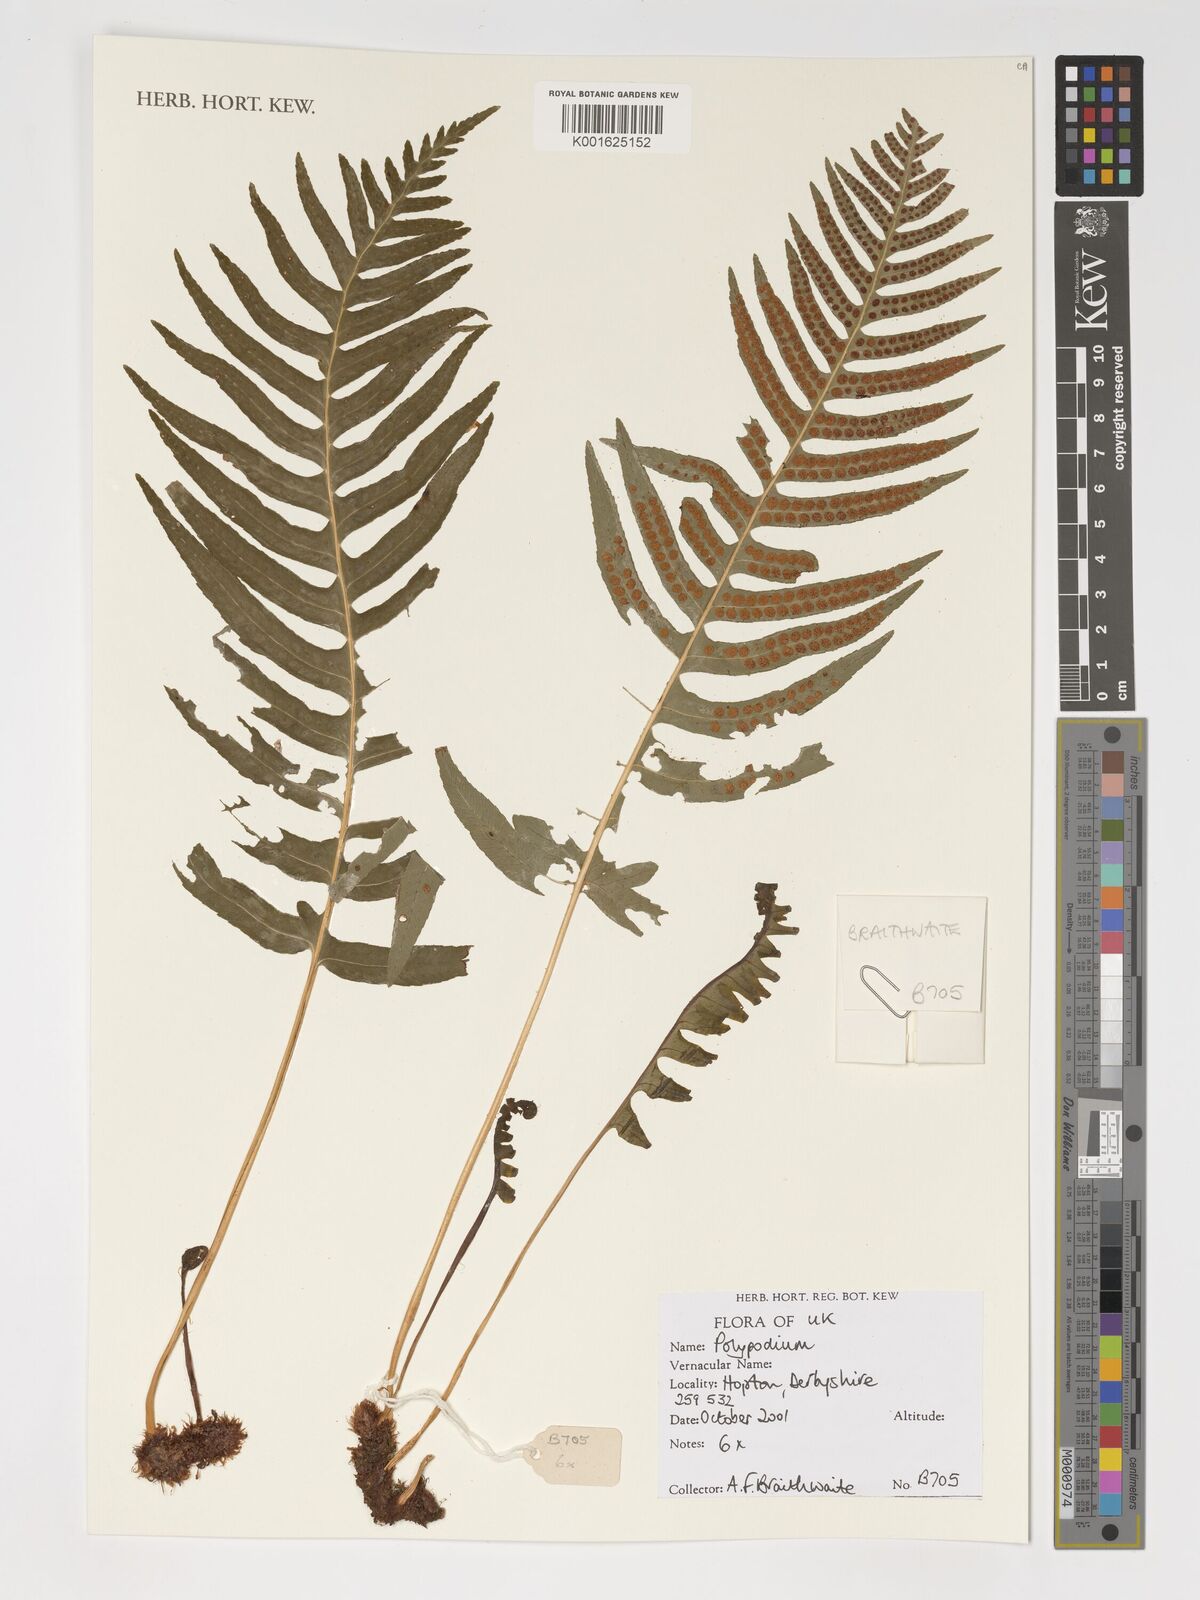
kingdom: Plantae
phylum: Tracheophyta
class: Polypodiopsida
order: Polypodiales
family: Polypodiaceae
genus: Polypodium
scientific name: Polypodium
